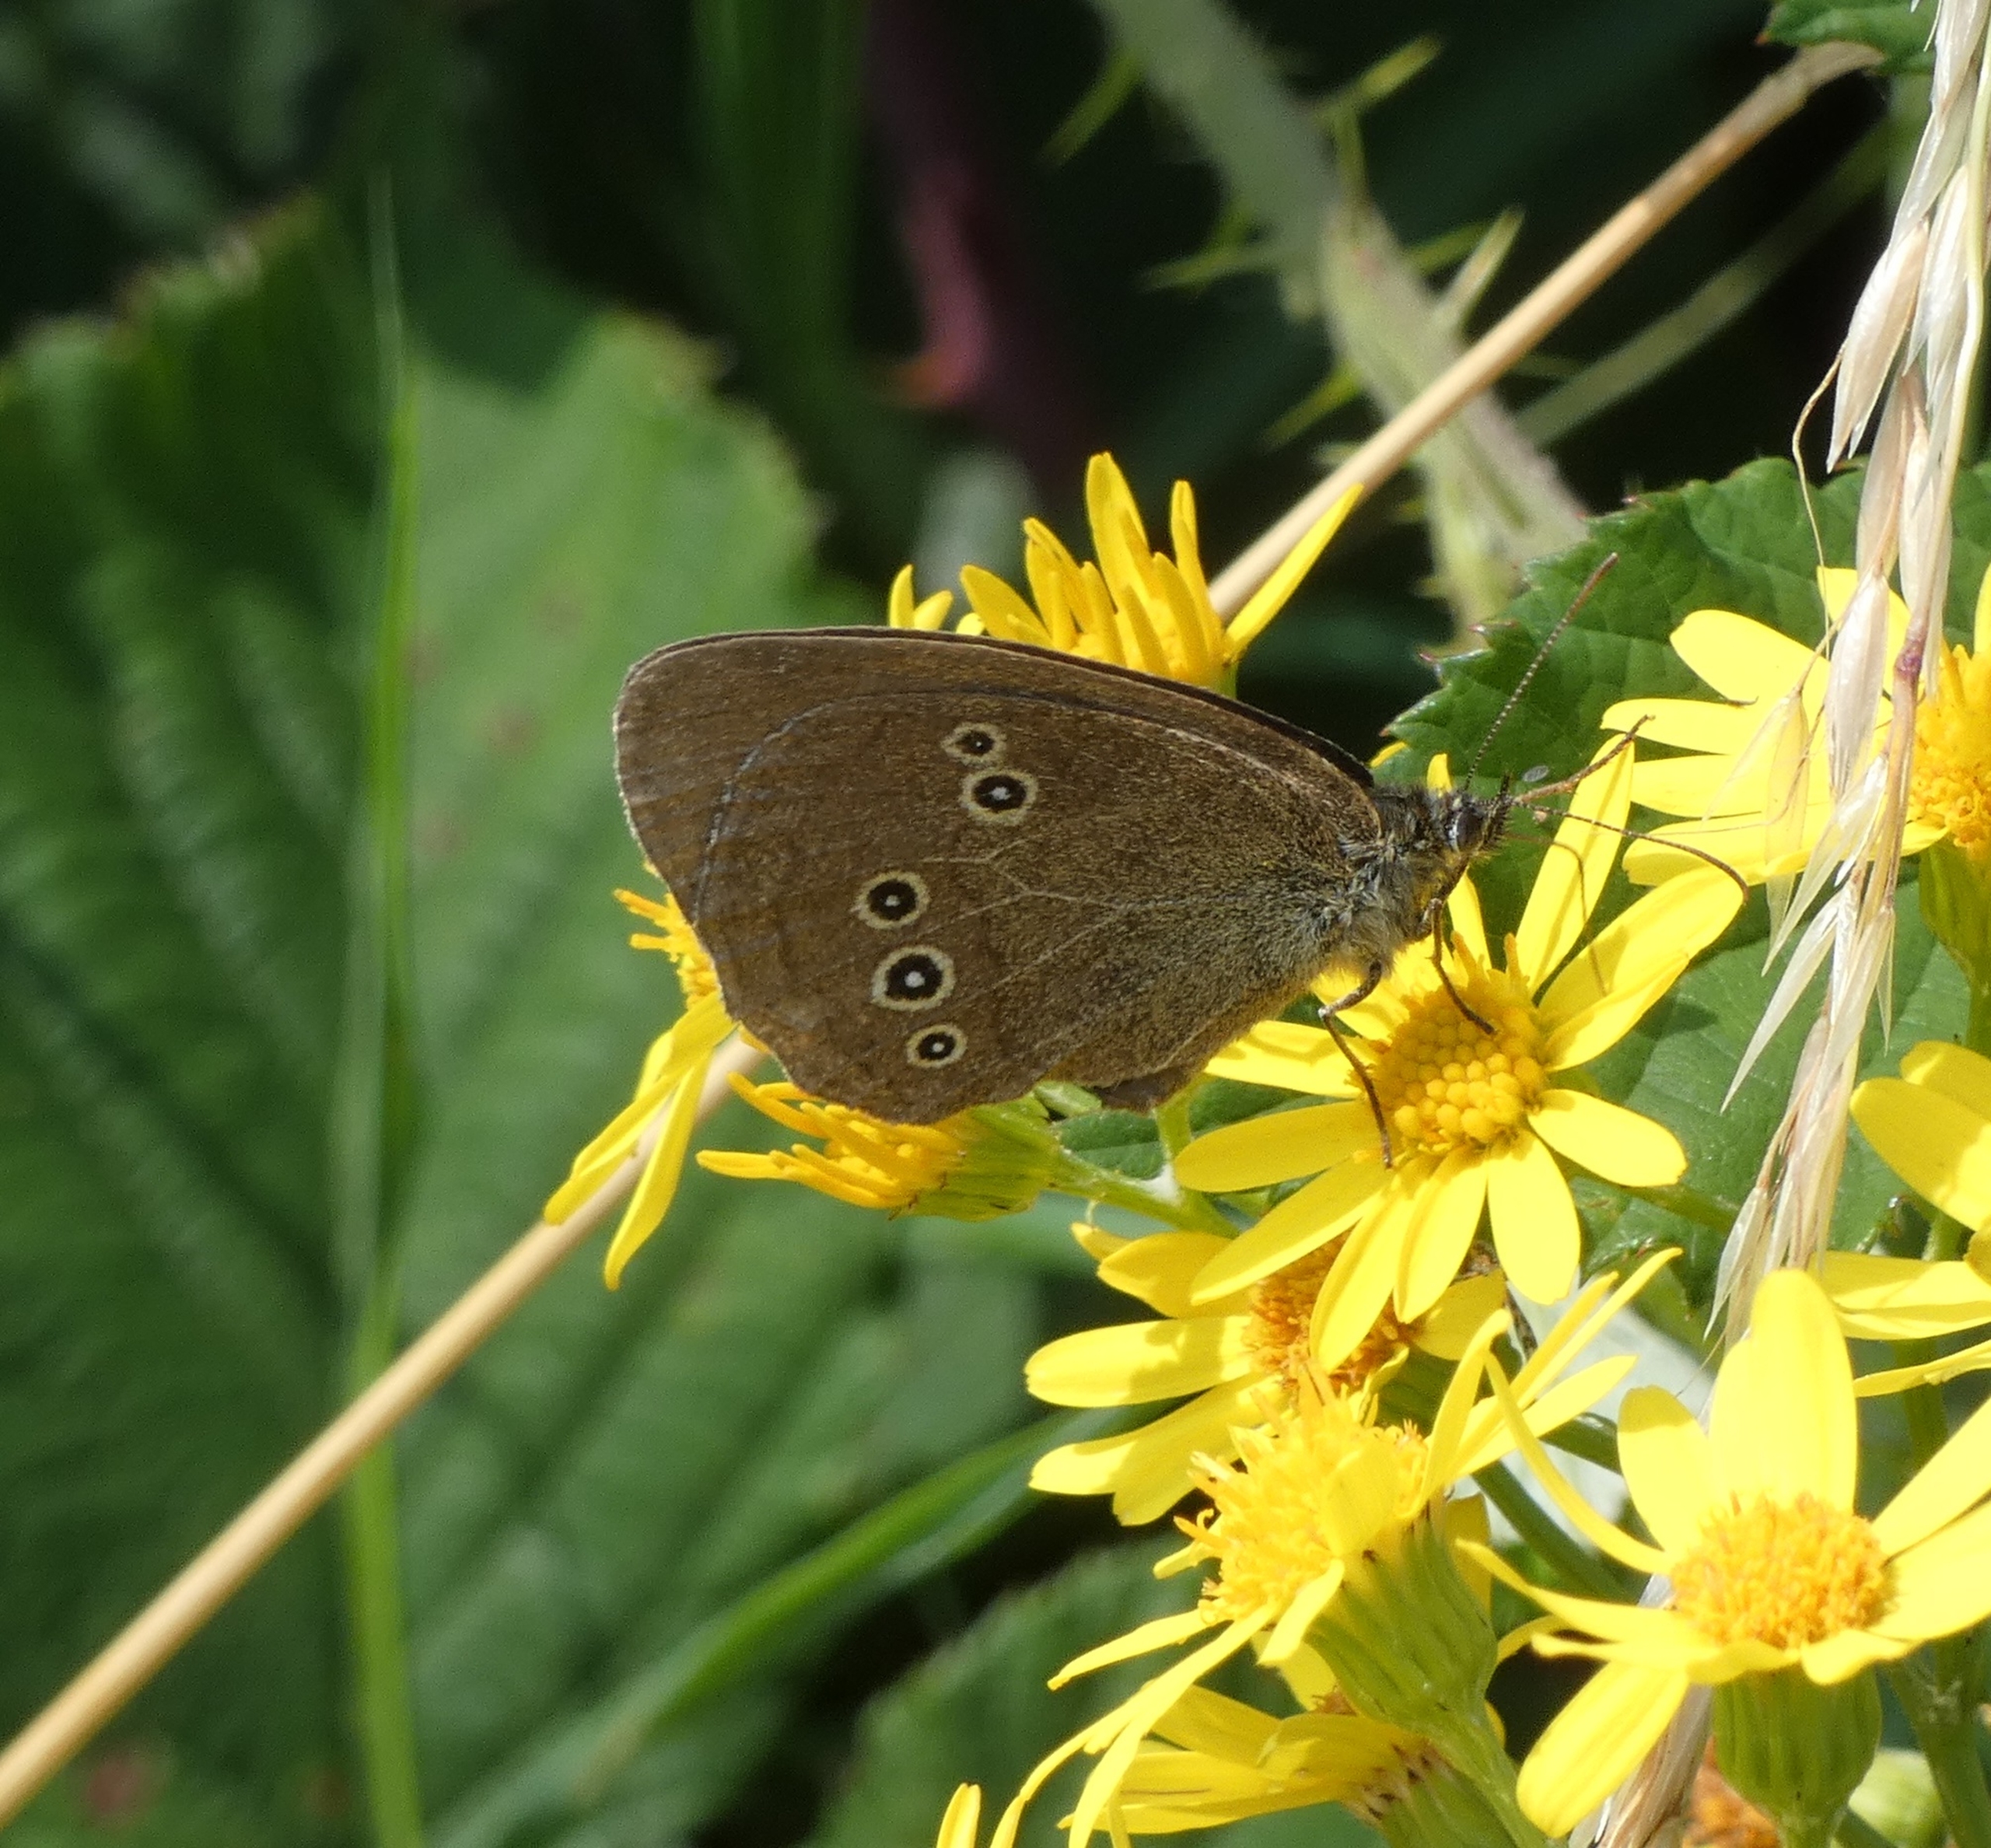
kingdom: Animalia
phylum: Arthropoda
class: Insecta
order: Lepidoptera
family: Nymphalidae
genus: Aphantopus
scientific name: Aphantopus hyperantus
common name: Engrandøje
